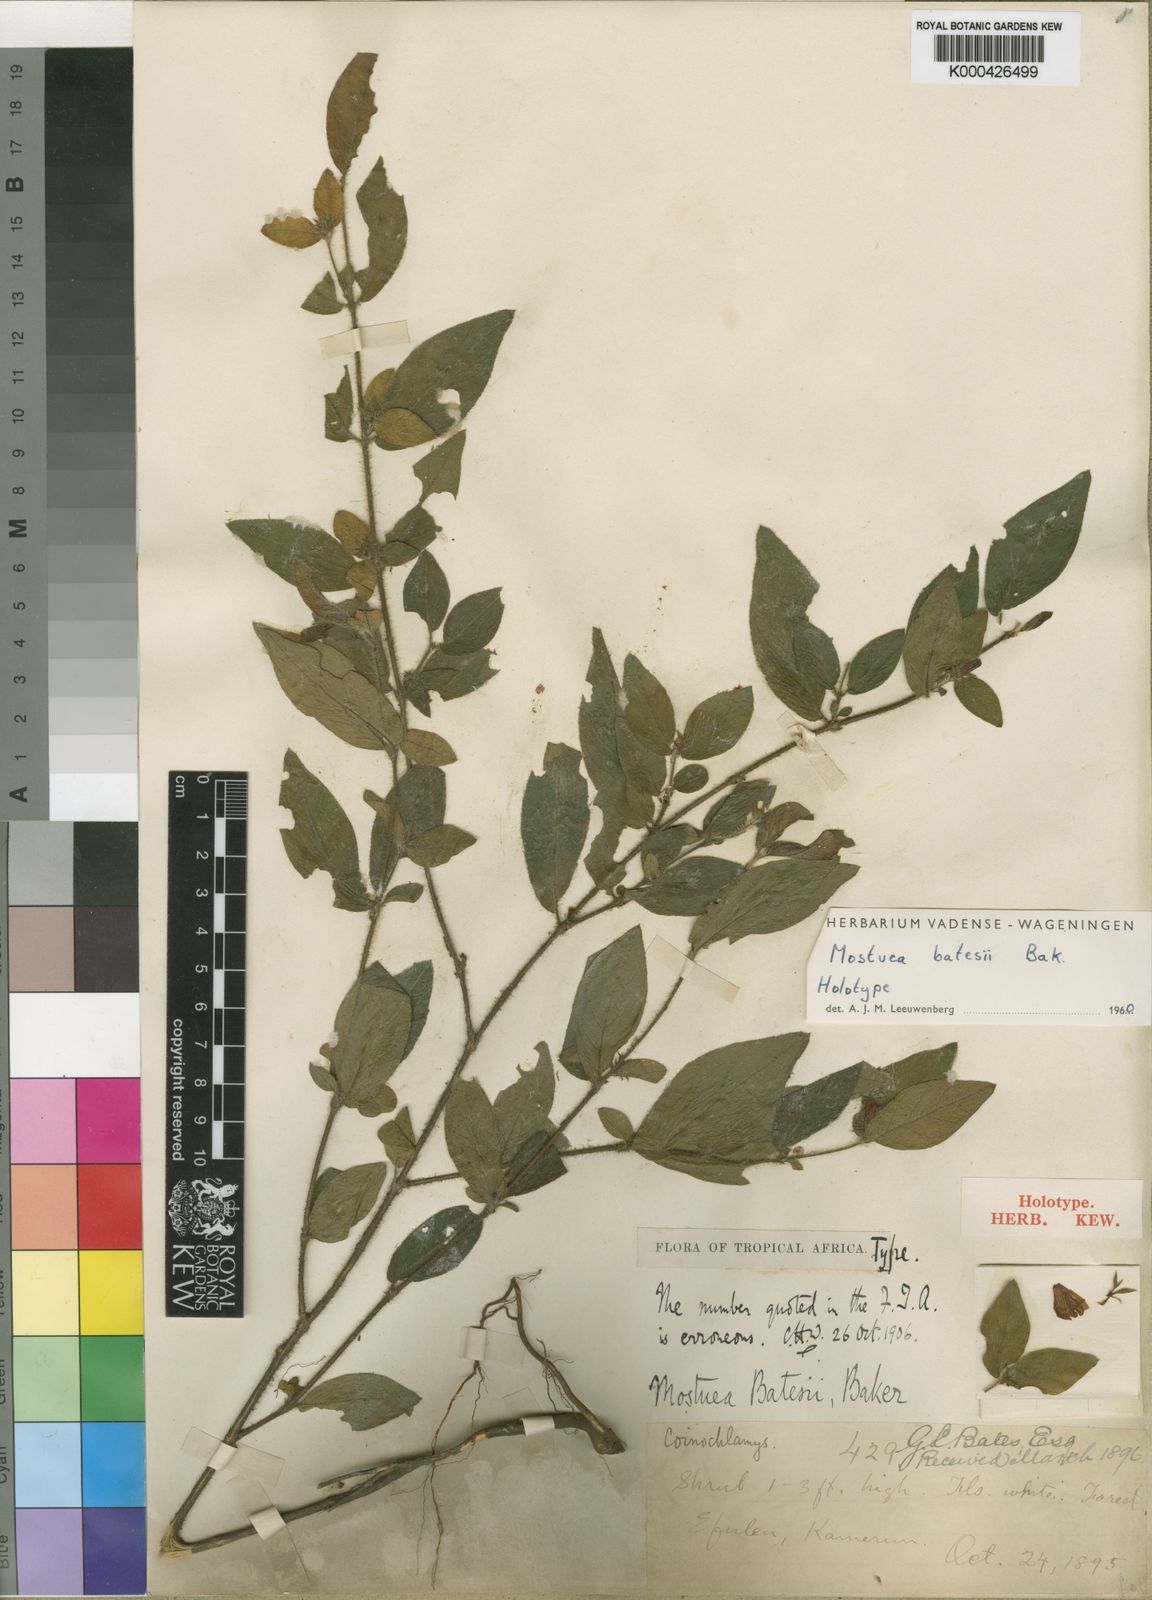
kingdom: Plantae
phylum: Tracheophyta
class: Magnoliopsida
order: Gentianales
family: Gelsemiaceae
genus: Mostuea
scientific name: Mostuea batesii
